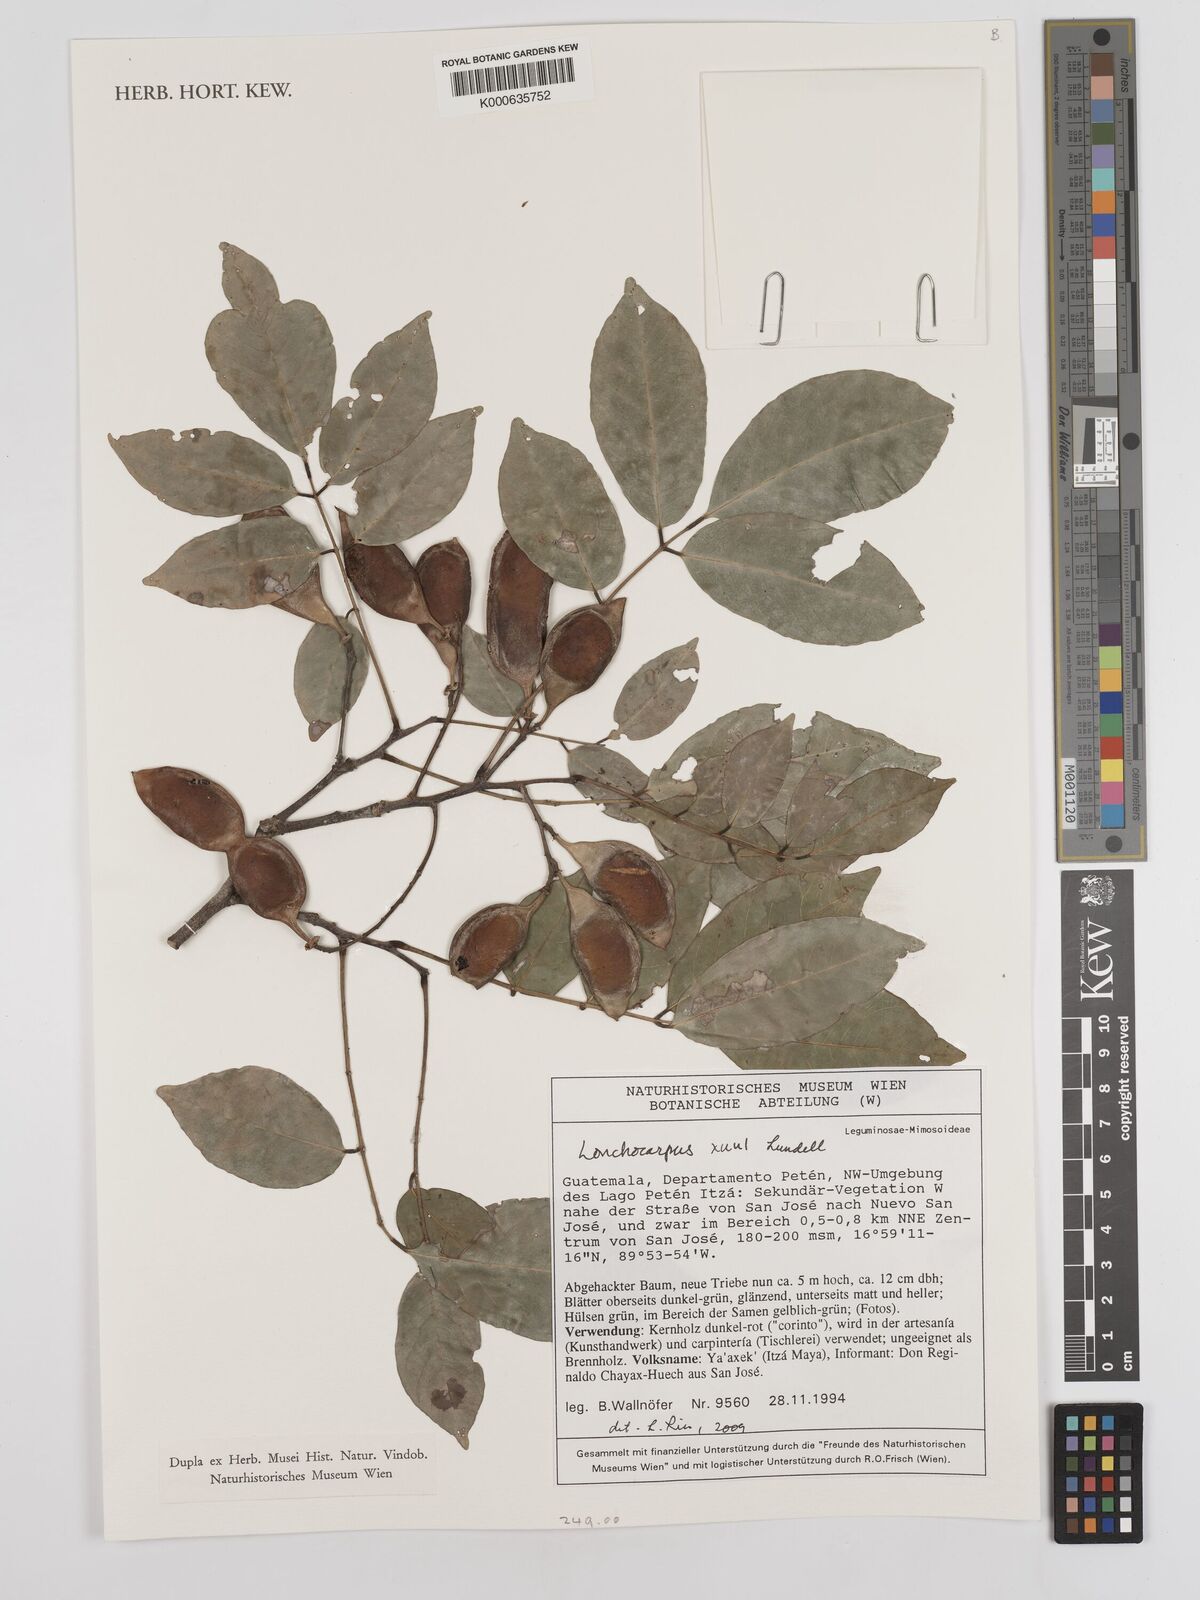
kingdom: Plantae
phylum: Tracheophyta
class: Magnoliopsida
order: Fabales
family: Fabaceae
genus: Lonchocarpus
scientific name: Lonchocarpus guatemalensis
